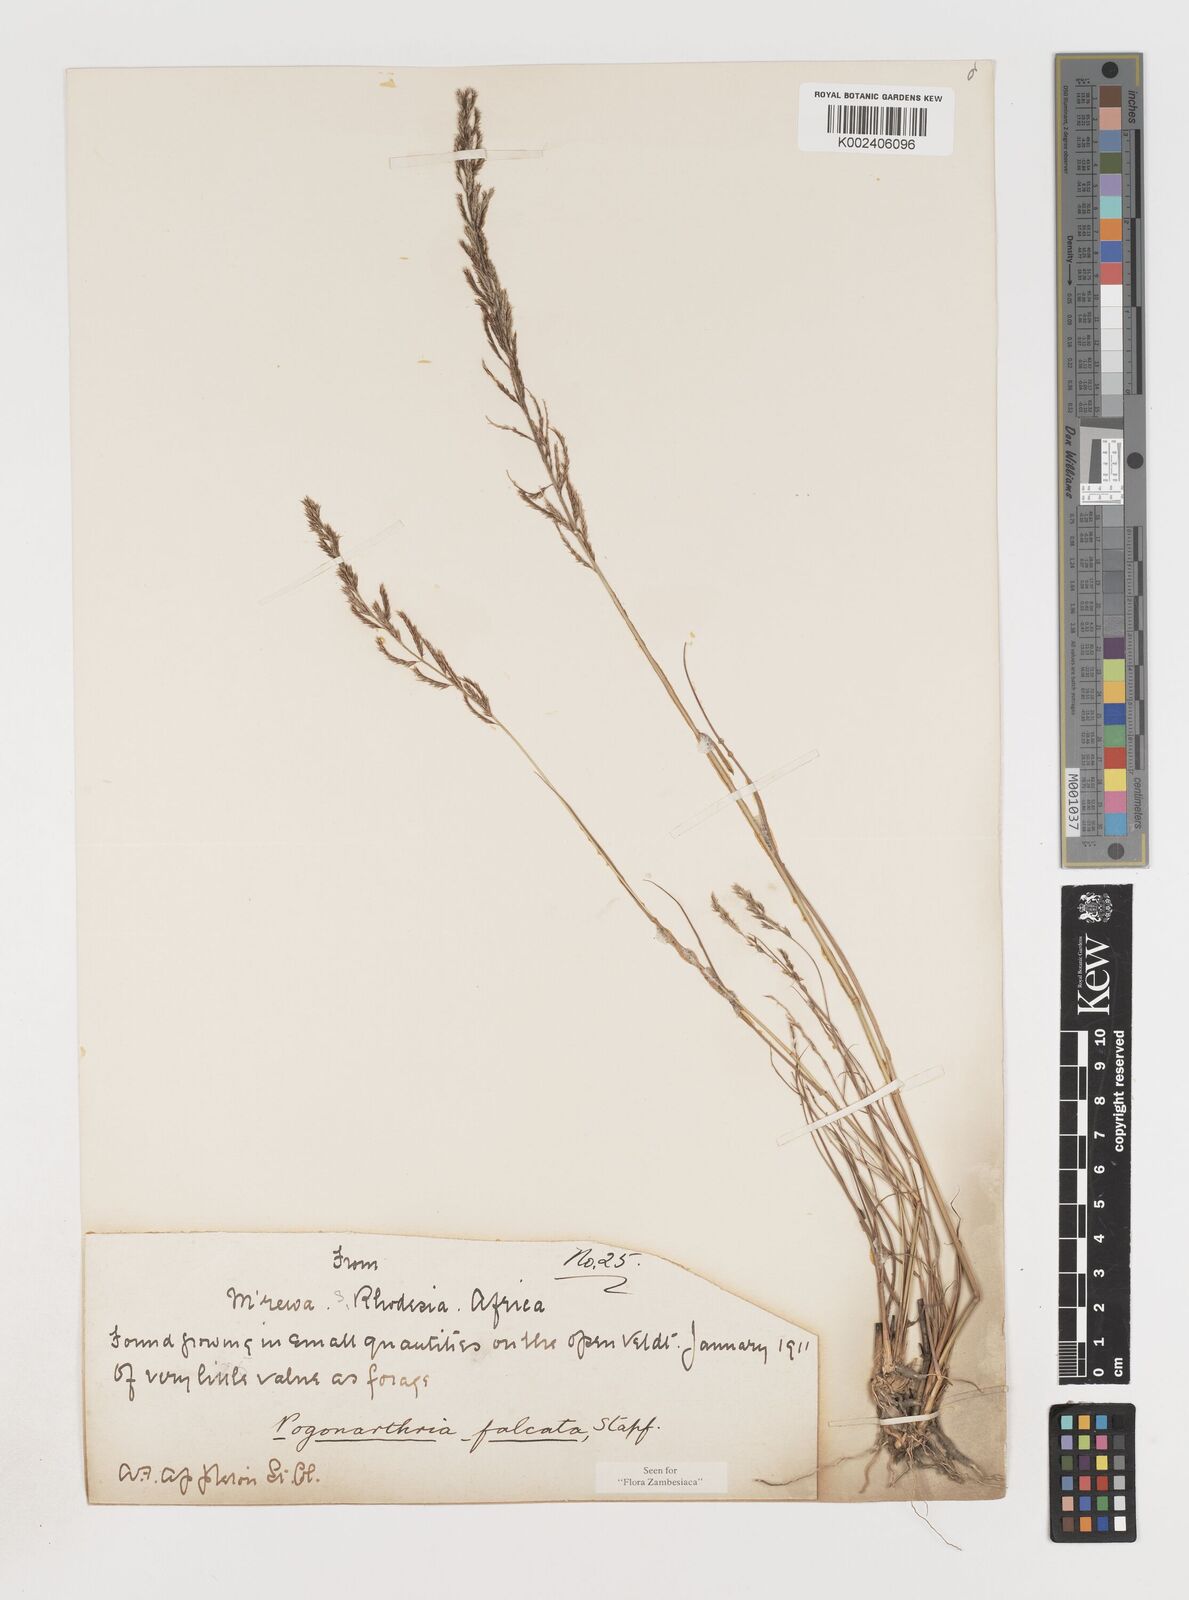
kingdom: Plantae
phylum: Tracheophyta
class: Liliopsida
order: Poales
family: Poaceae
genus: Pogonarthria
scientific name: Pogonarthria squarrosa
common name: Grass
